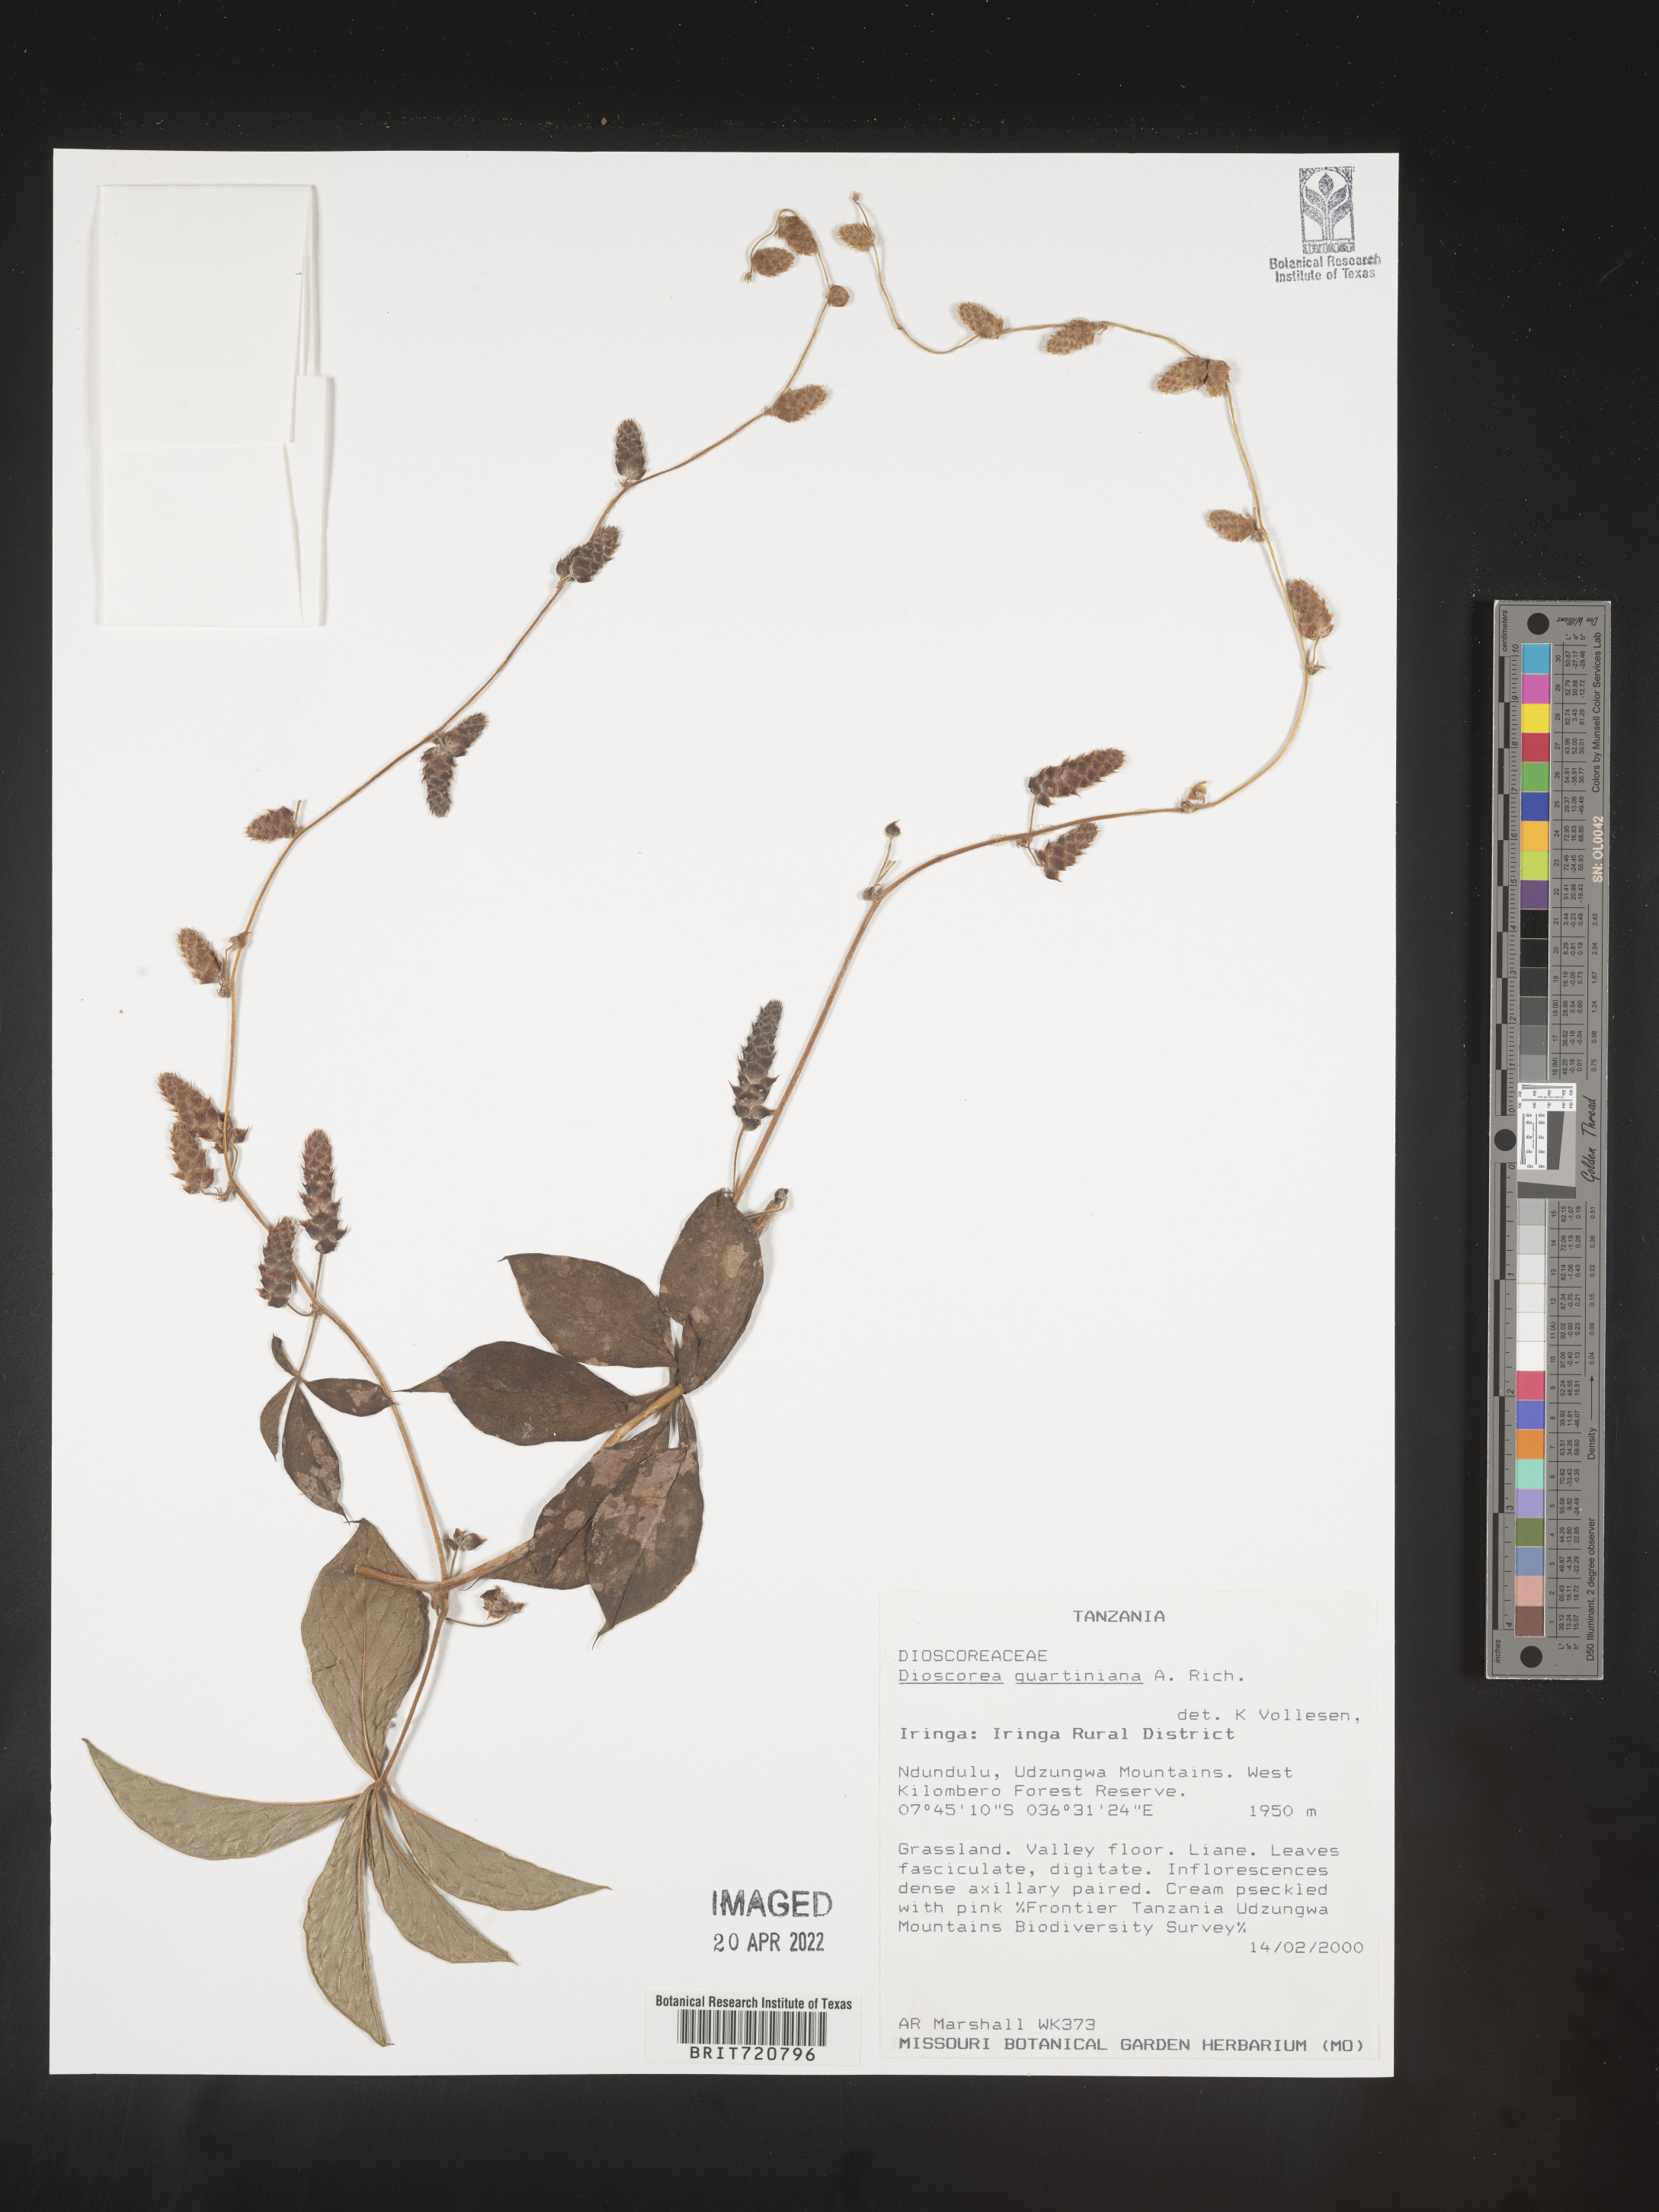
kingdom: Plantae
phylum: Tracheophyta
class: Liliopsida
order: Dioscoreales
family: Dioscoreaceae
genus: Dioscorea
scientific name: Dioscorea
